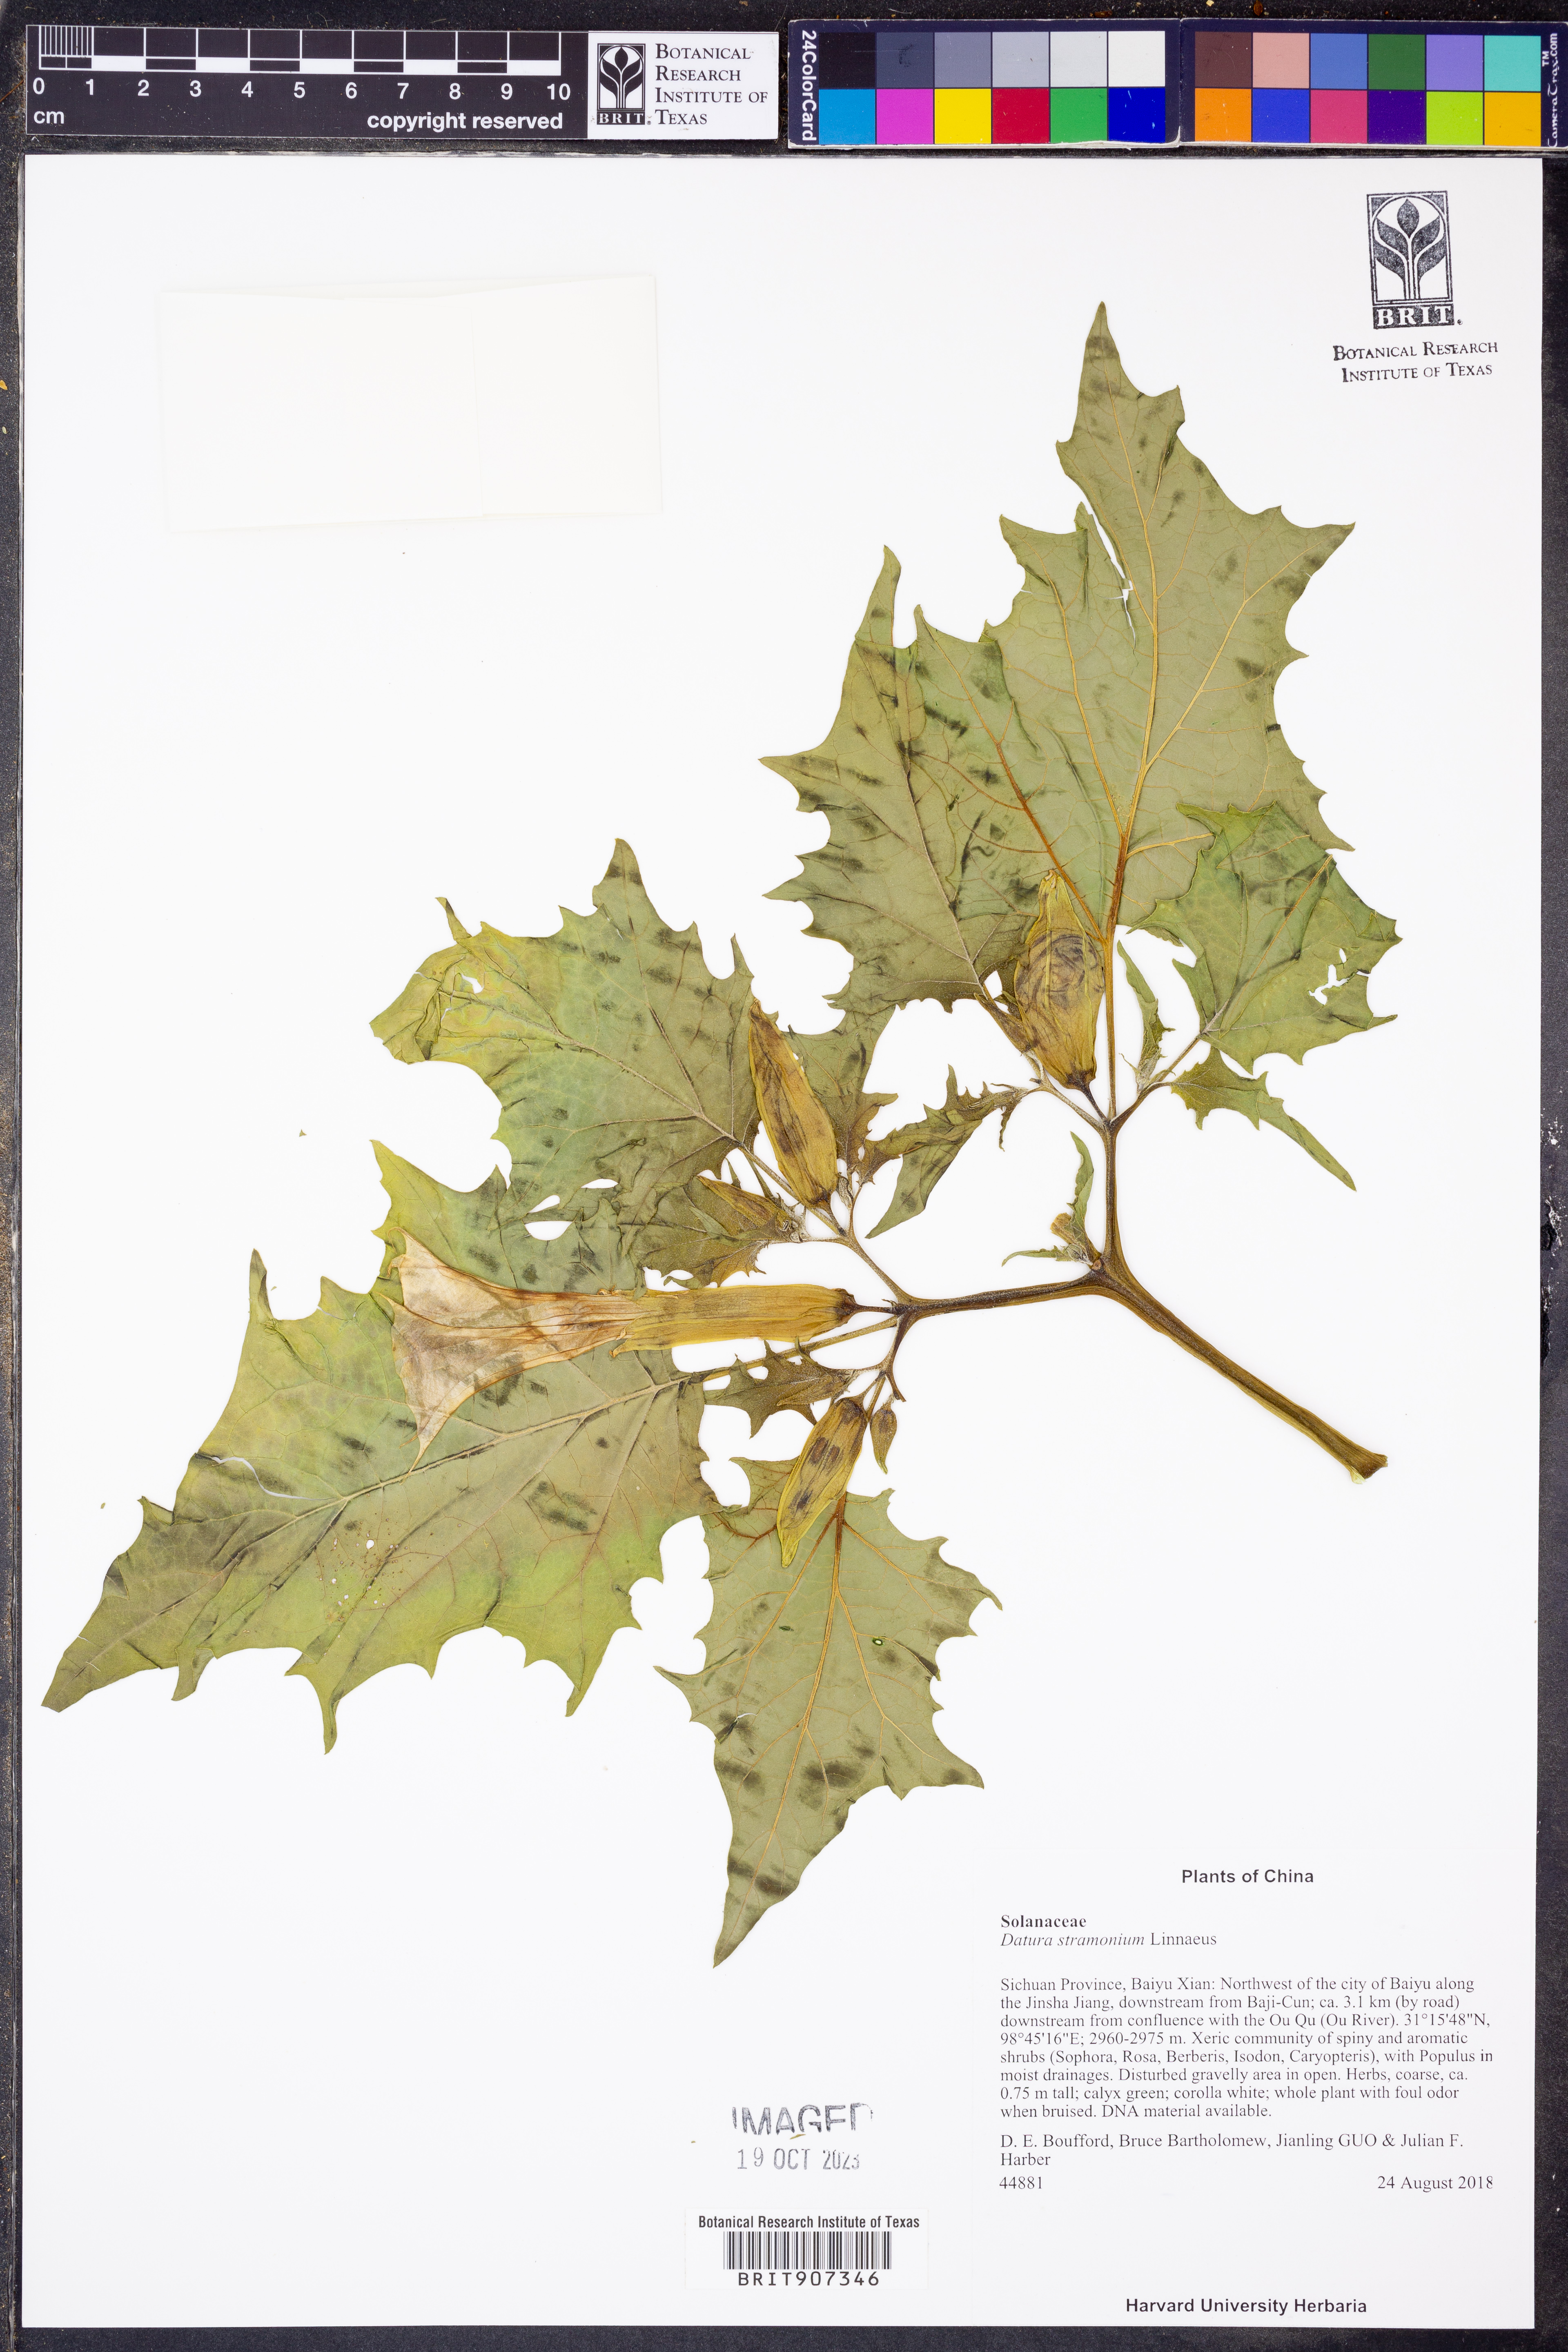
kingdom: Plantae
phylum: Tracheophyta
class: Magnoliopsida
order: Solanales
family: Solanaceae
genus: Datura
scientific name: Datura stramonium
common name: Thorn-apple
